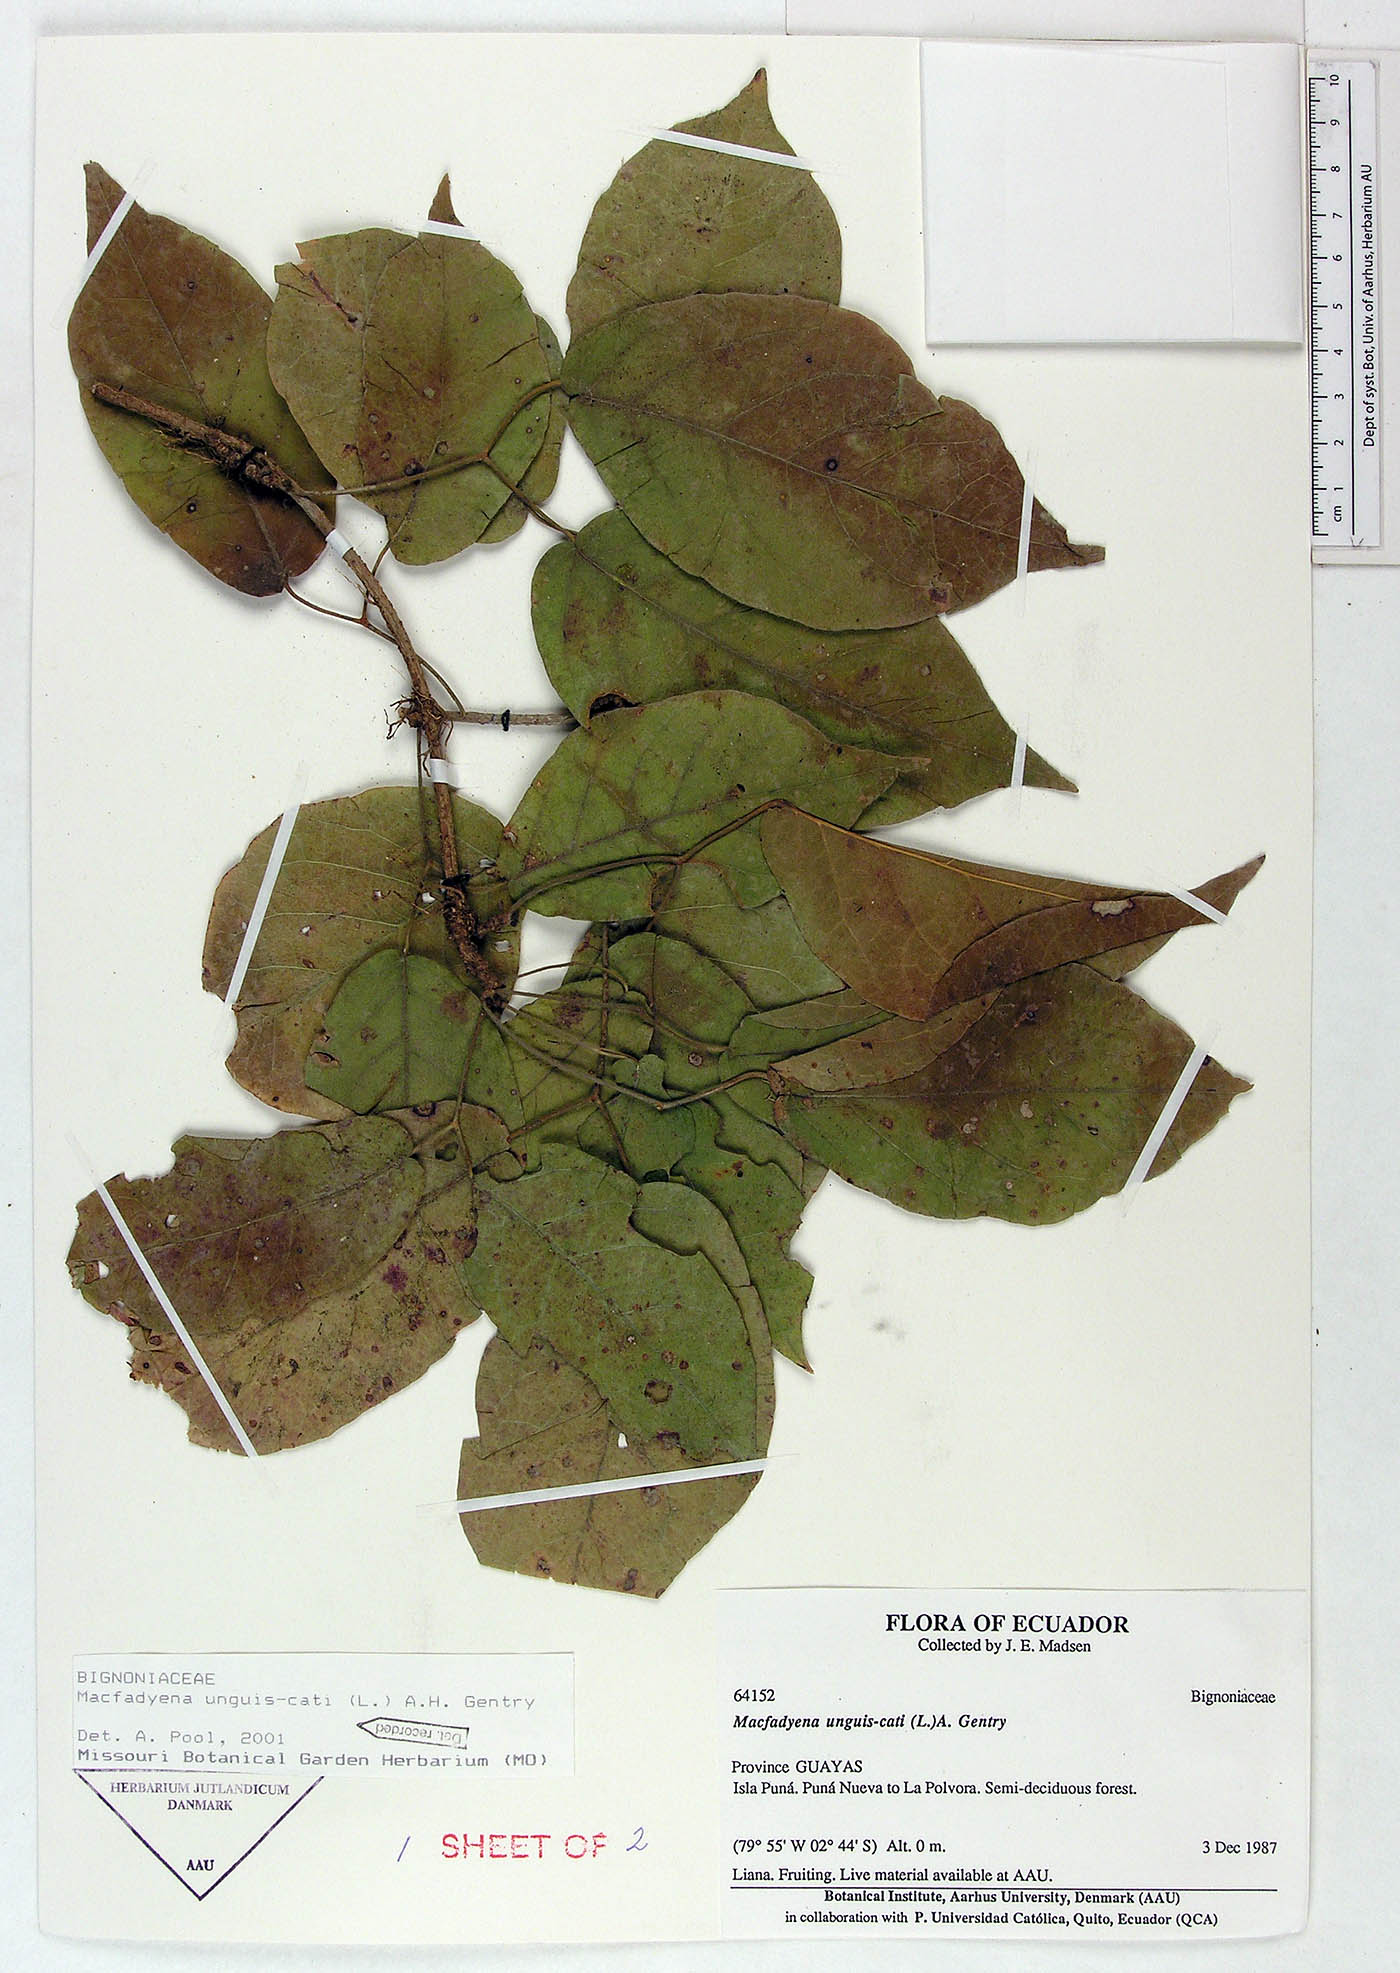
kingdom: Plantae
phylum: Tracheophyta
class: Magnoliopsida
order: Lamiales
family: Bignoniaceae
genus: Dolichandra
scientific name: Dolichandra unguis-cati
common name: Catclaw vine
